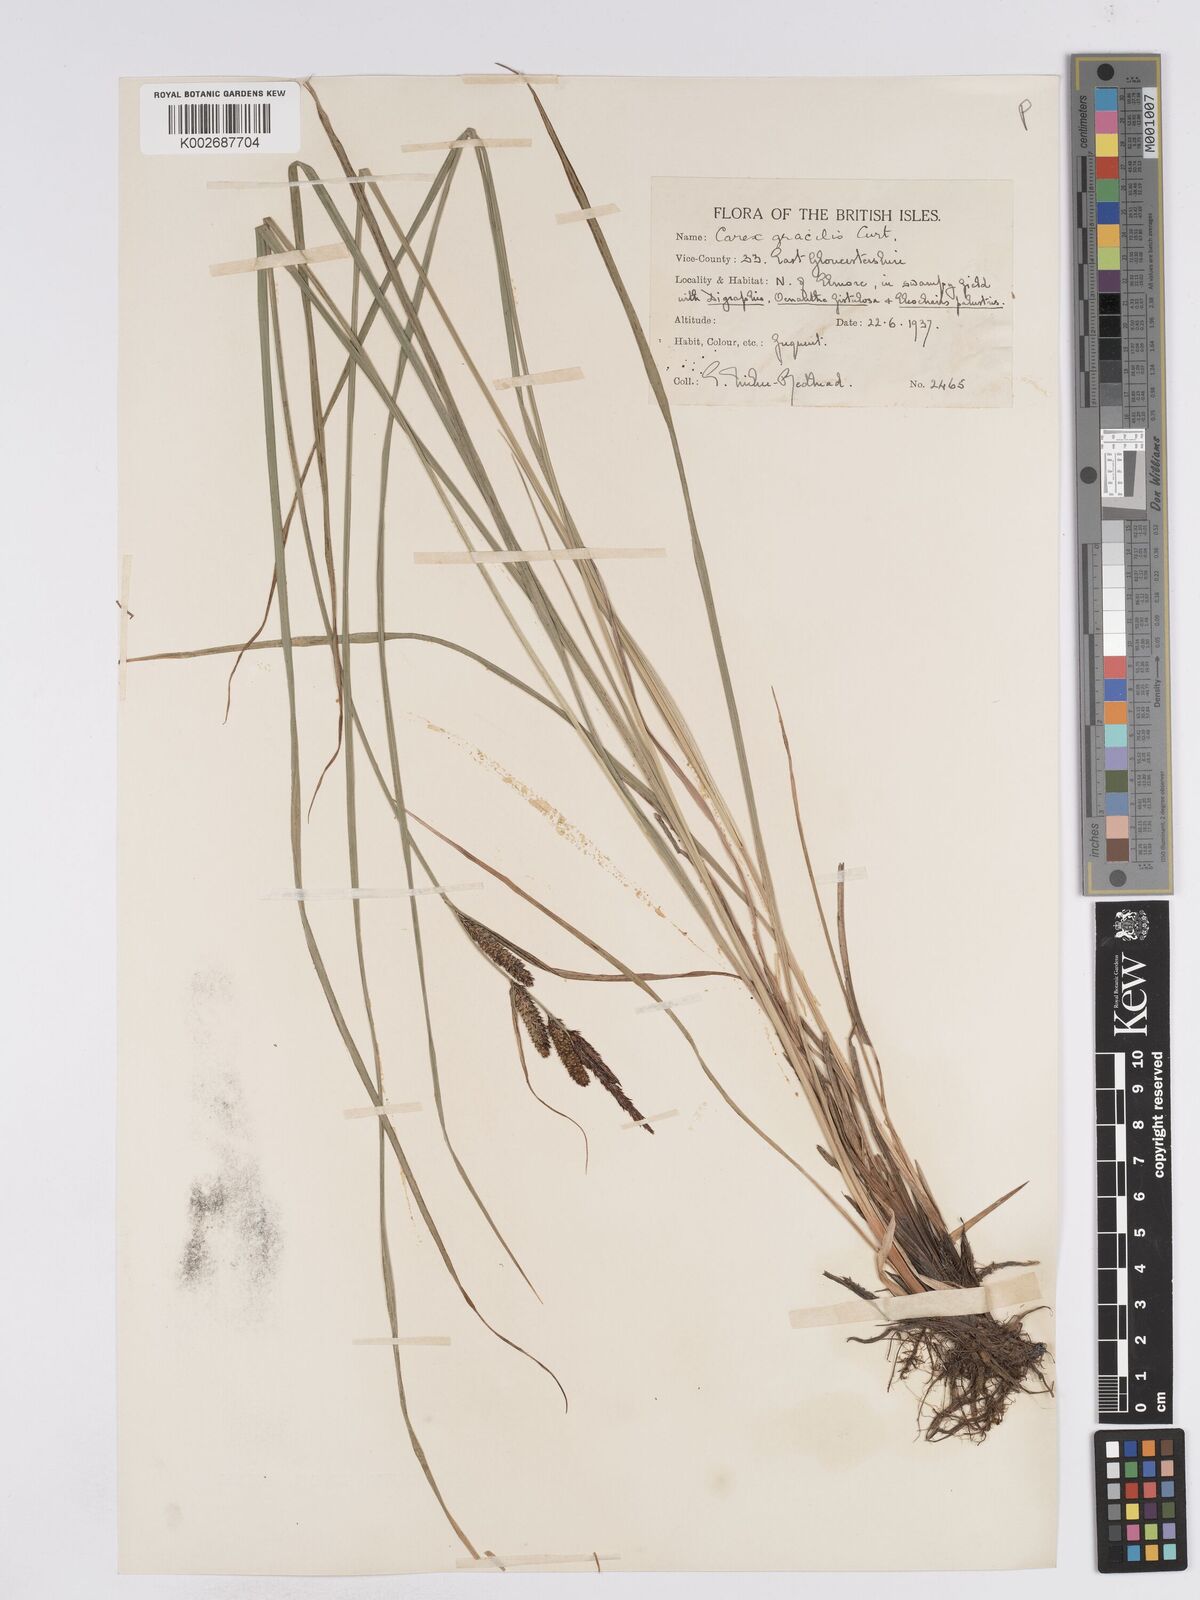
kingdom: Plantae
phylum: Tracheophyta
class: Liliopsida
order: Poales
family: Cyperaceae
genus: Carex
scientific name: Carex acuta
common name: Slender tufted-sedge
